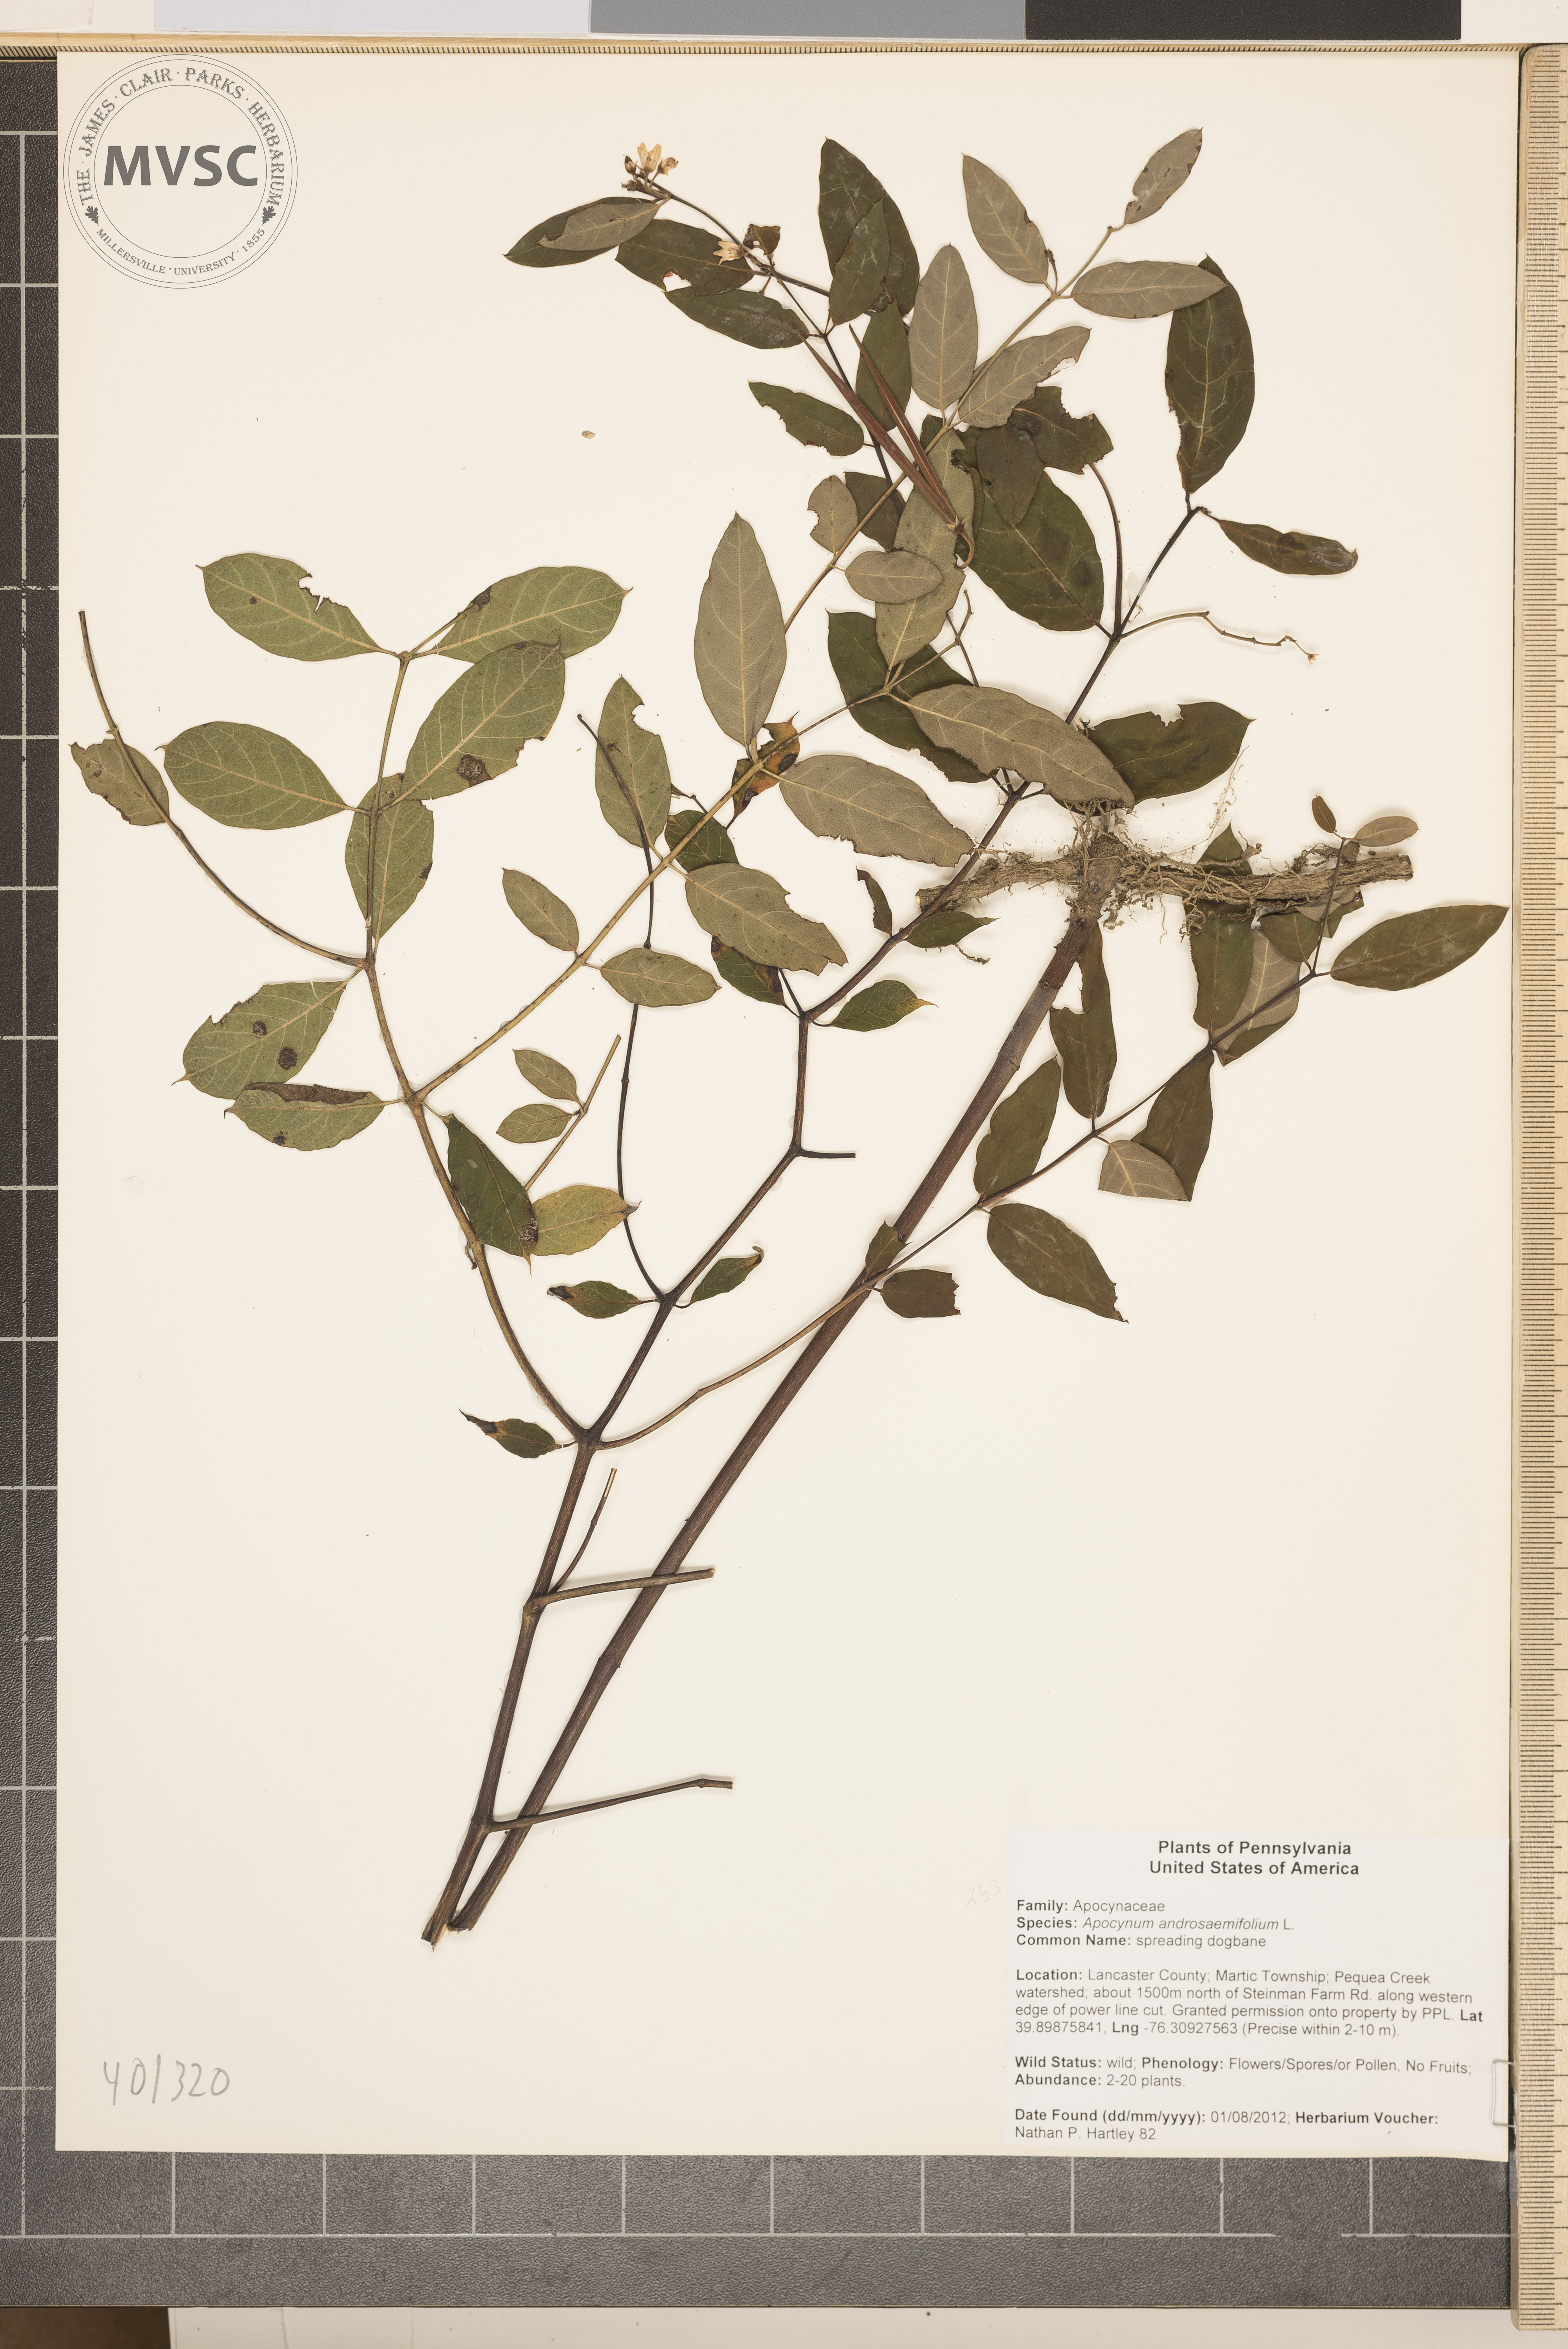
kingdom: Plantae
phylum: Tracheophyta
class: Magnoliopsida
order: Gentianales
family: Apocynaceae
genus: Apocynum
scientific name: Apocynum androsaemifolium
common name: Spreading dogbane
